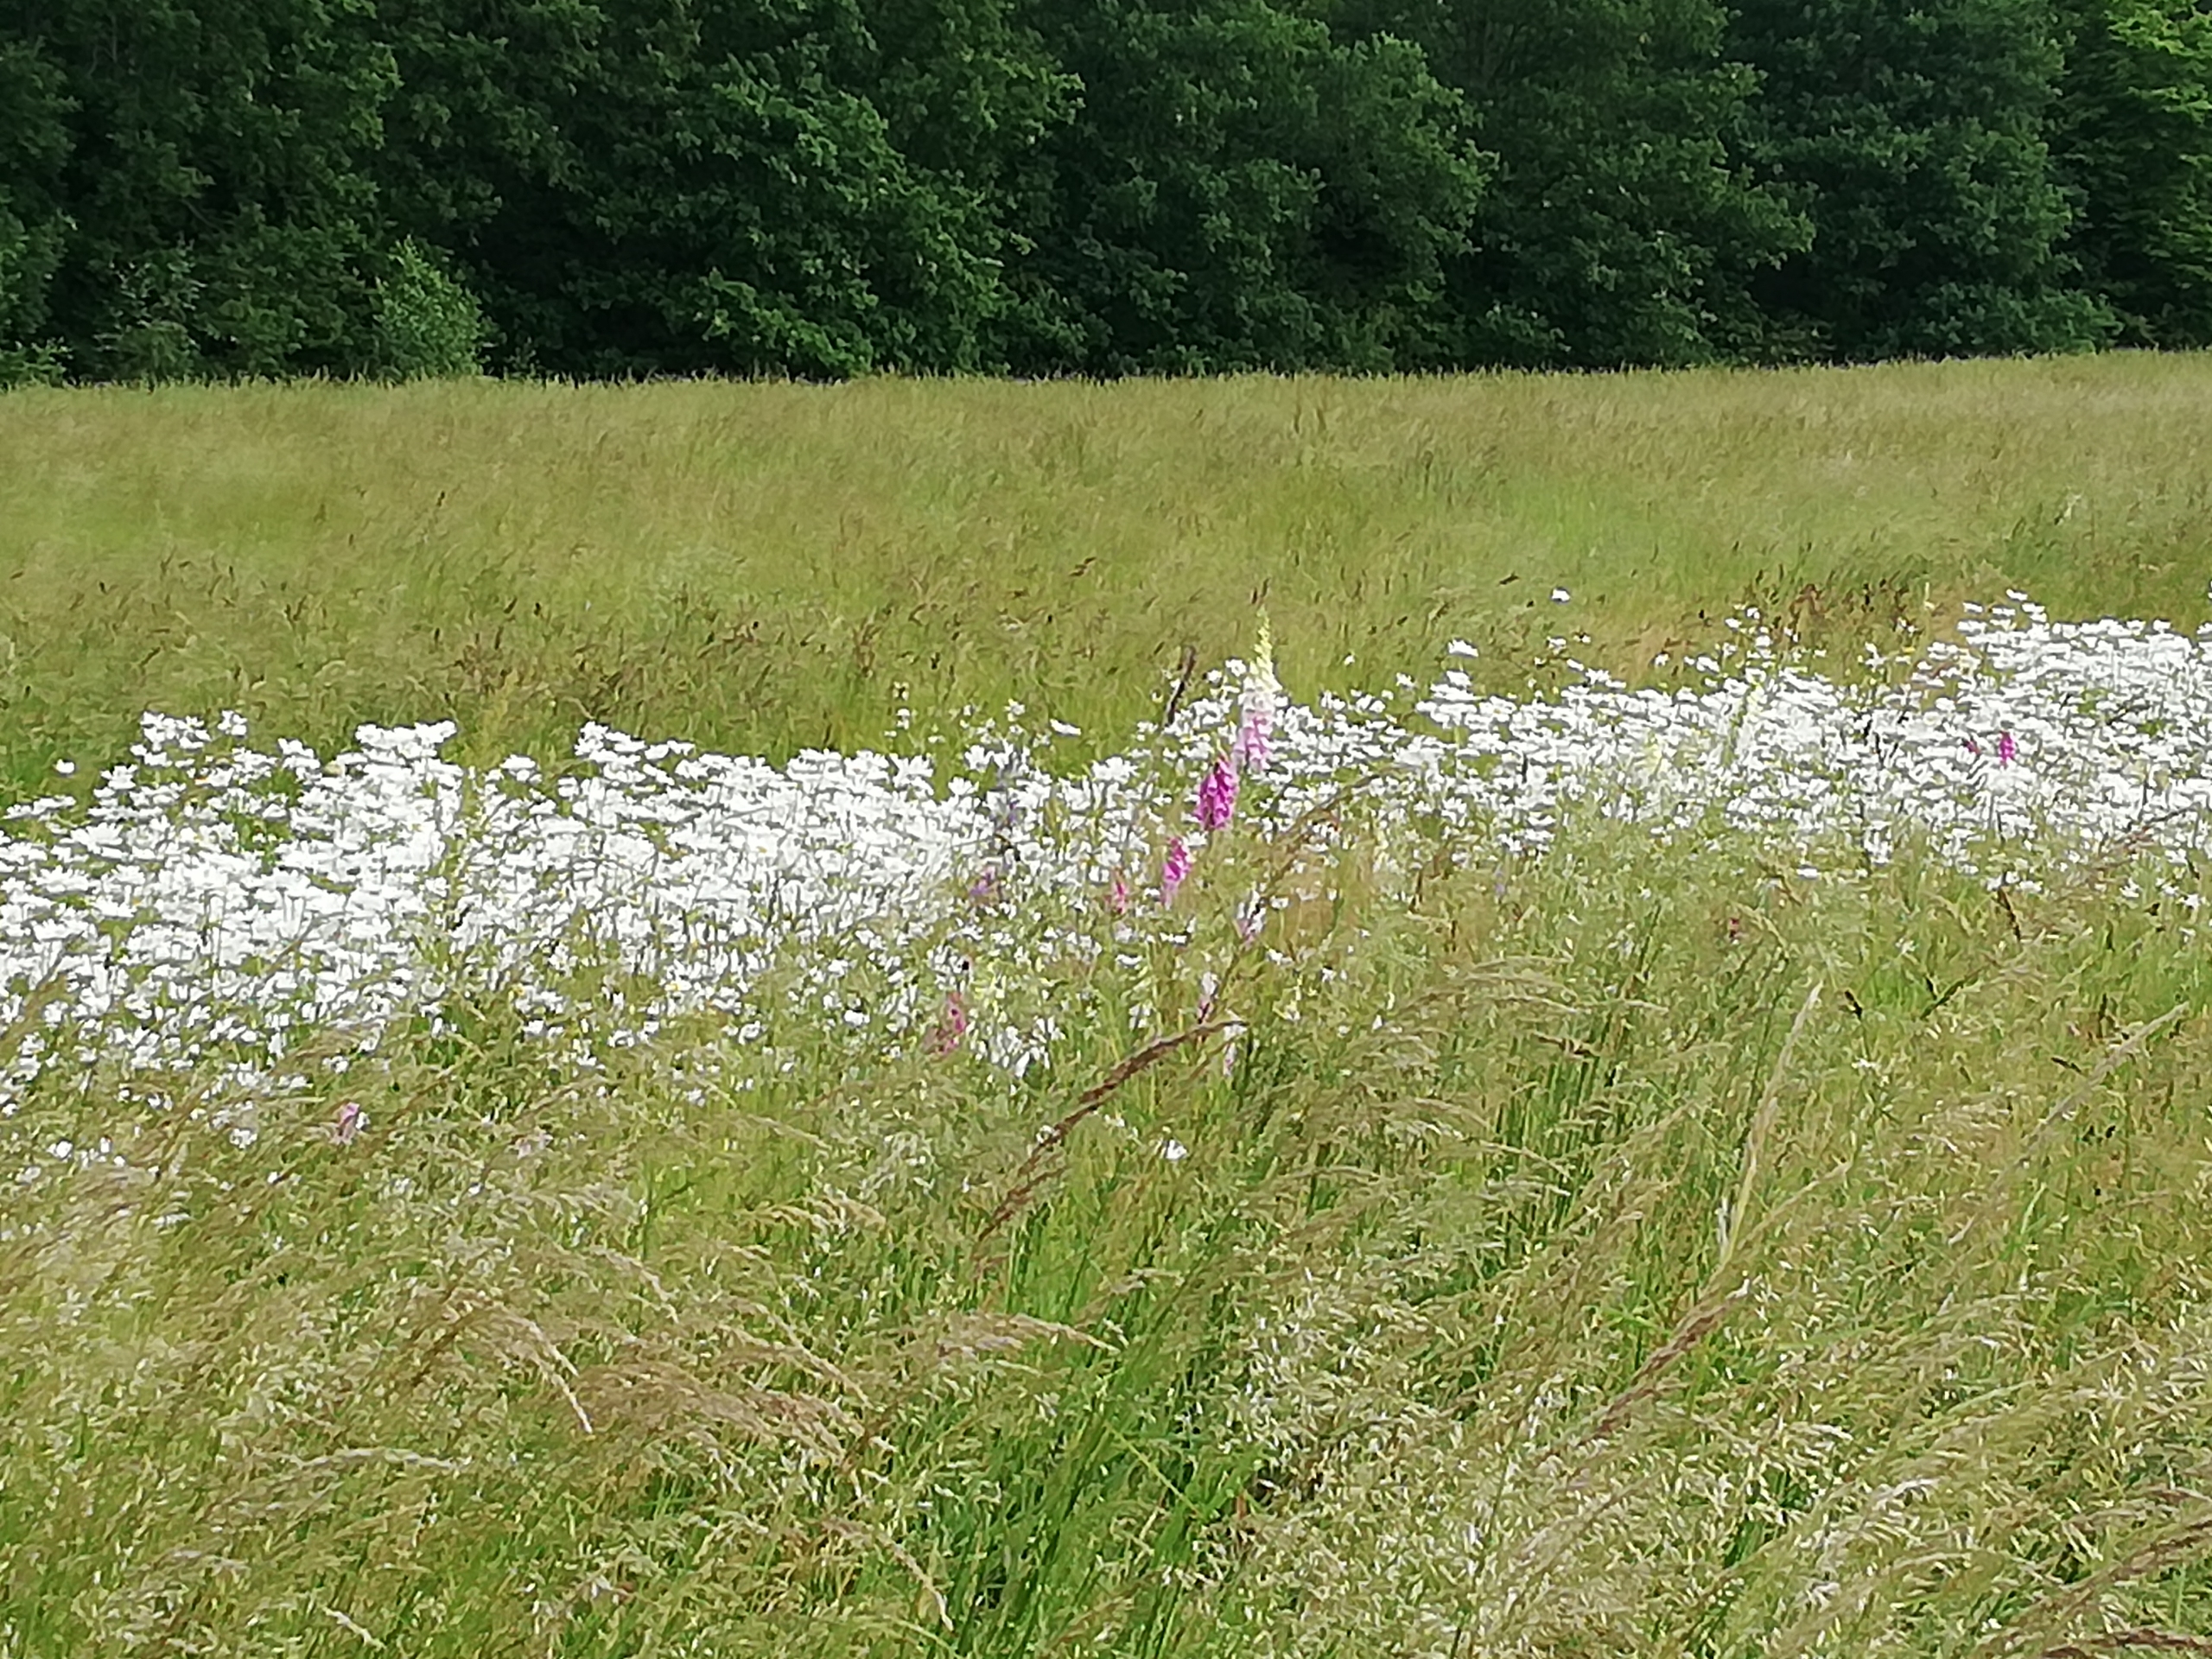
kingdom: Plantae
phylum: Tracheophyta
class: Magnoliopsida
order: Lamiales
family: Plantaginaceae
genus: Digitalis
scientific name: Digitalis purpurea
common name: Almindelig fingerbøl
